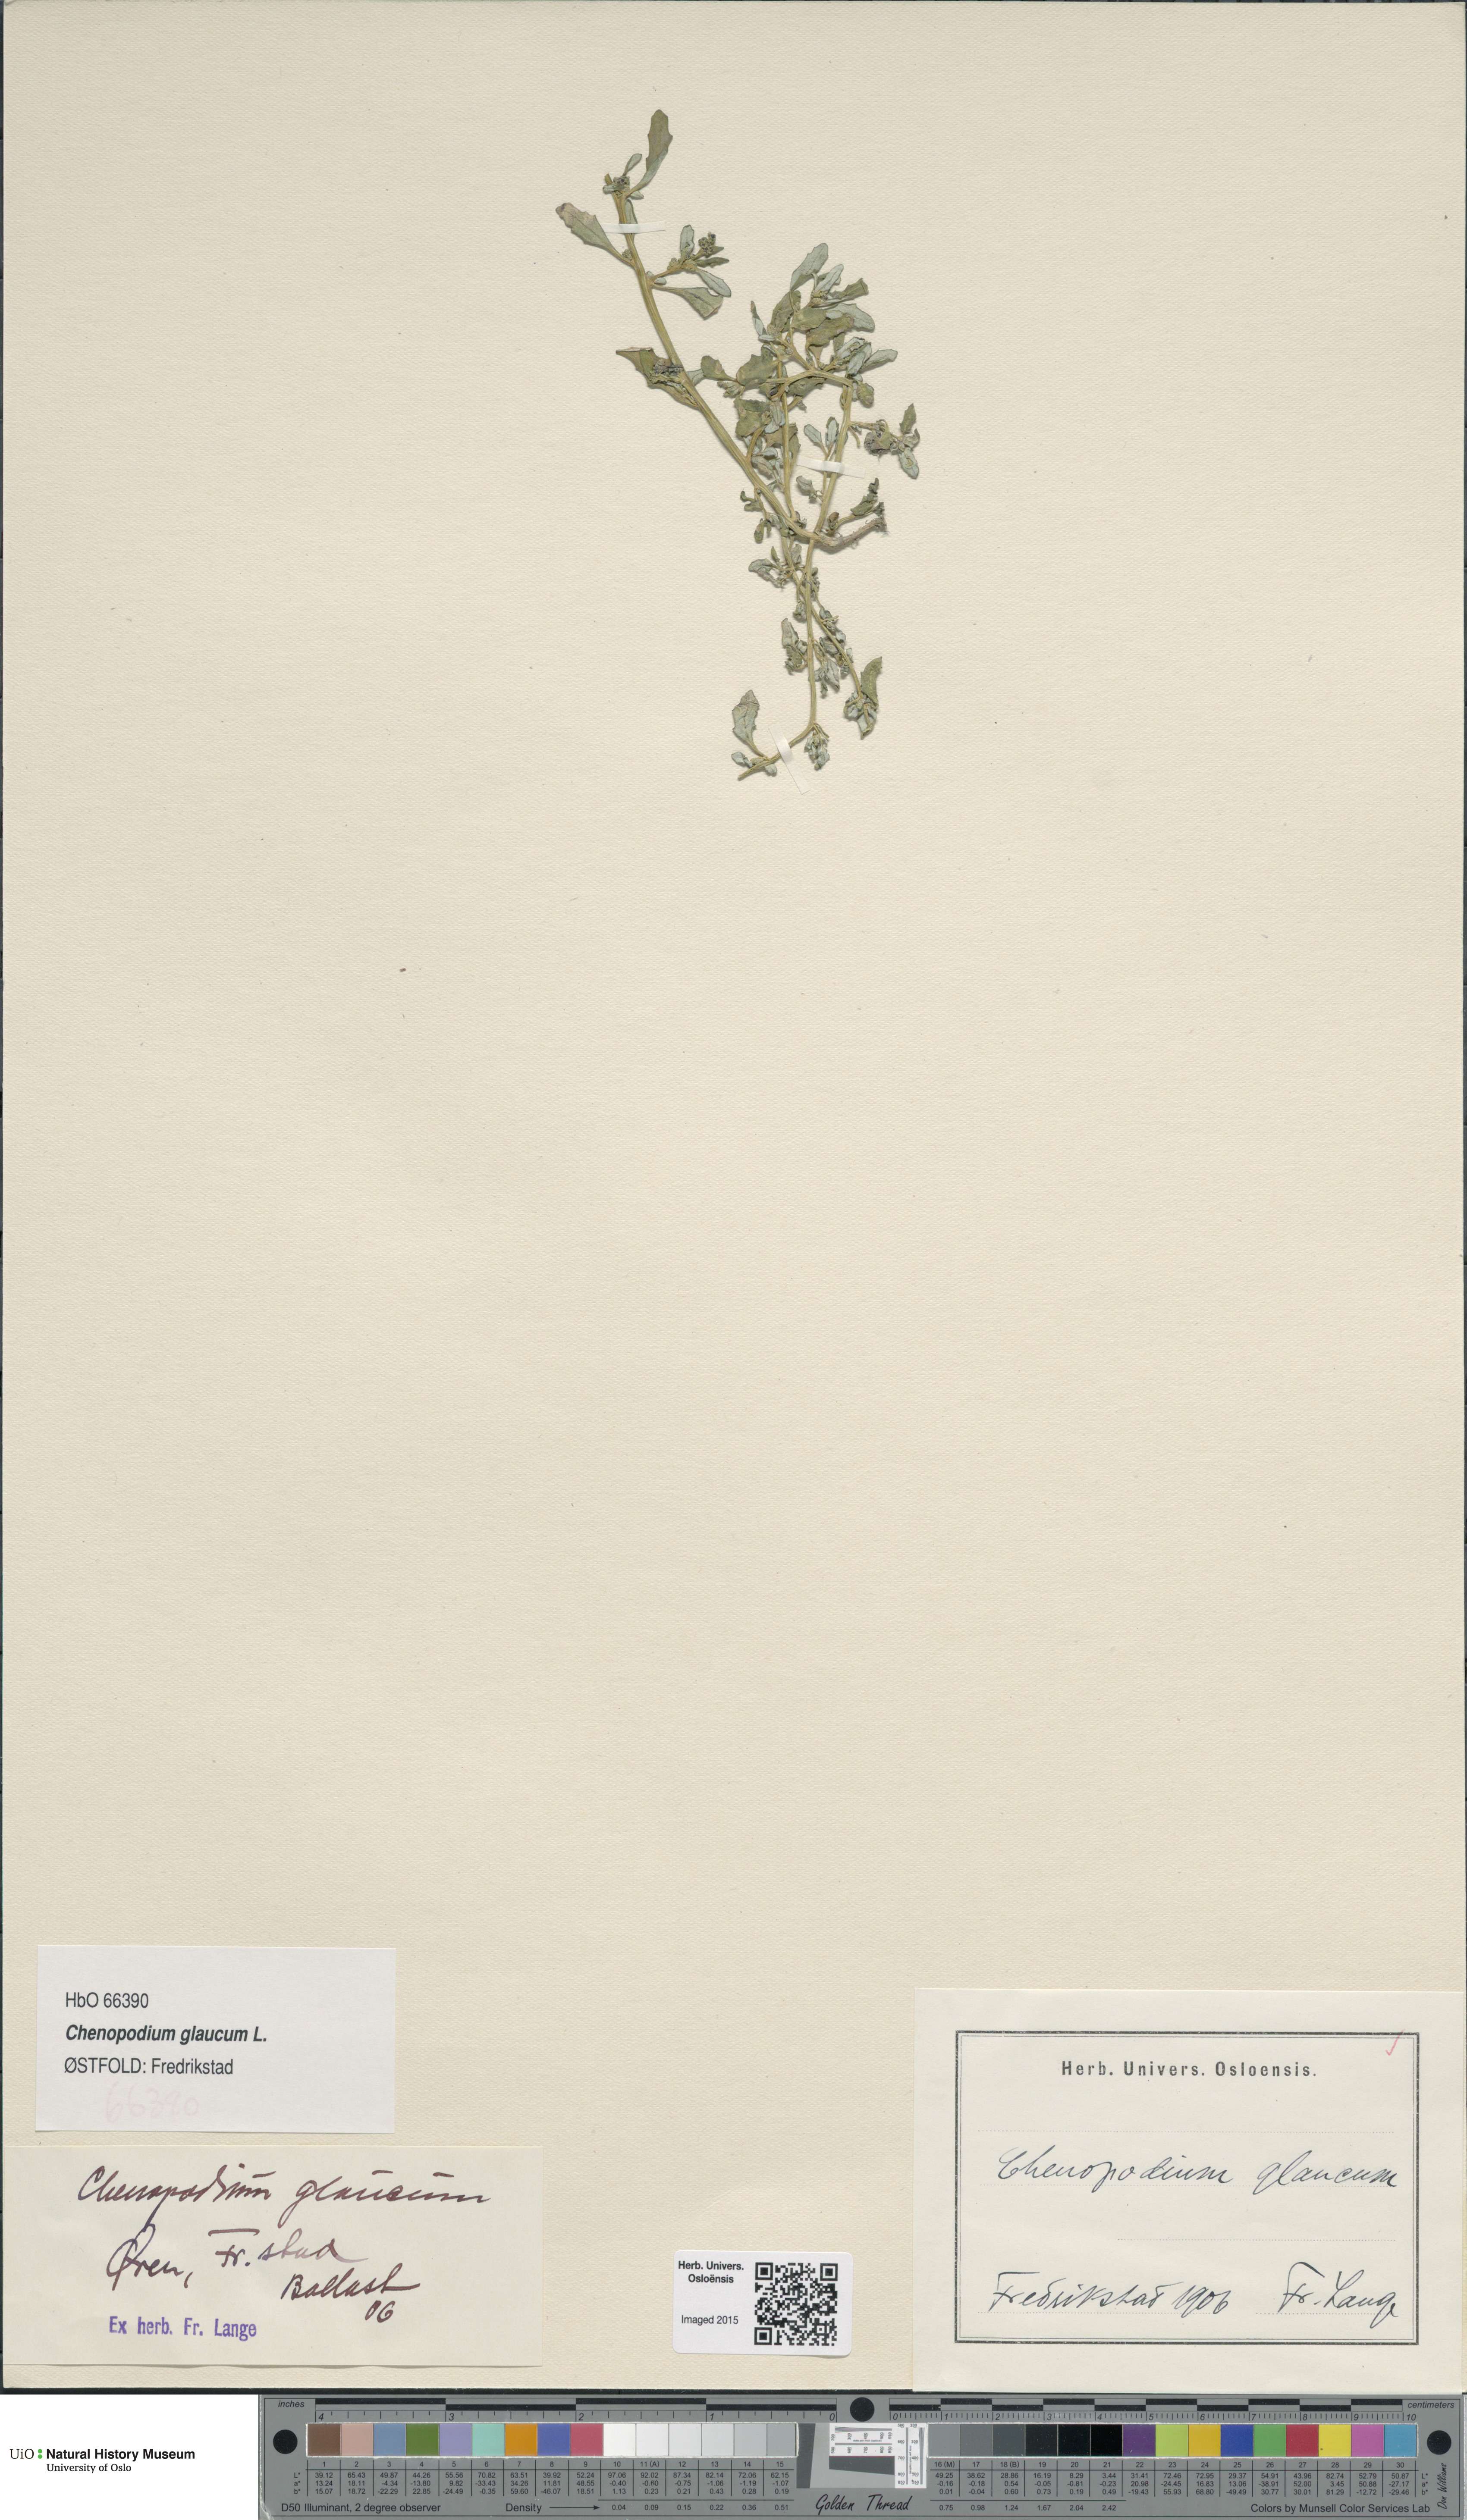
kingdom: Plantae
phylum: Tracheophyta
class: Magnoliopsida
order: Caryophyllales
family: Amaranthaceae
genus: Oxybasis
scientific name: Oxybasis glauca
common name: Glaucous goosefoot
